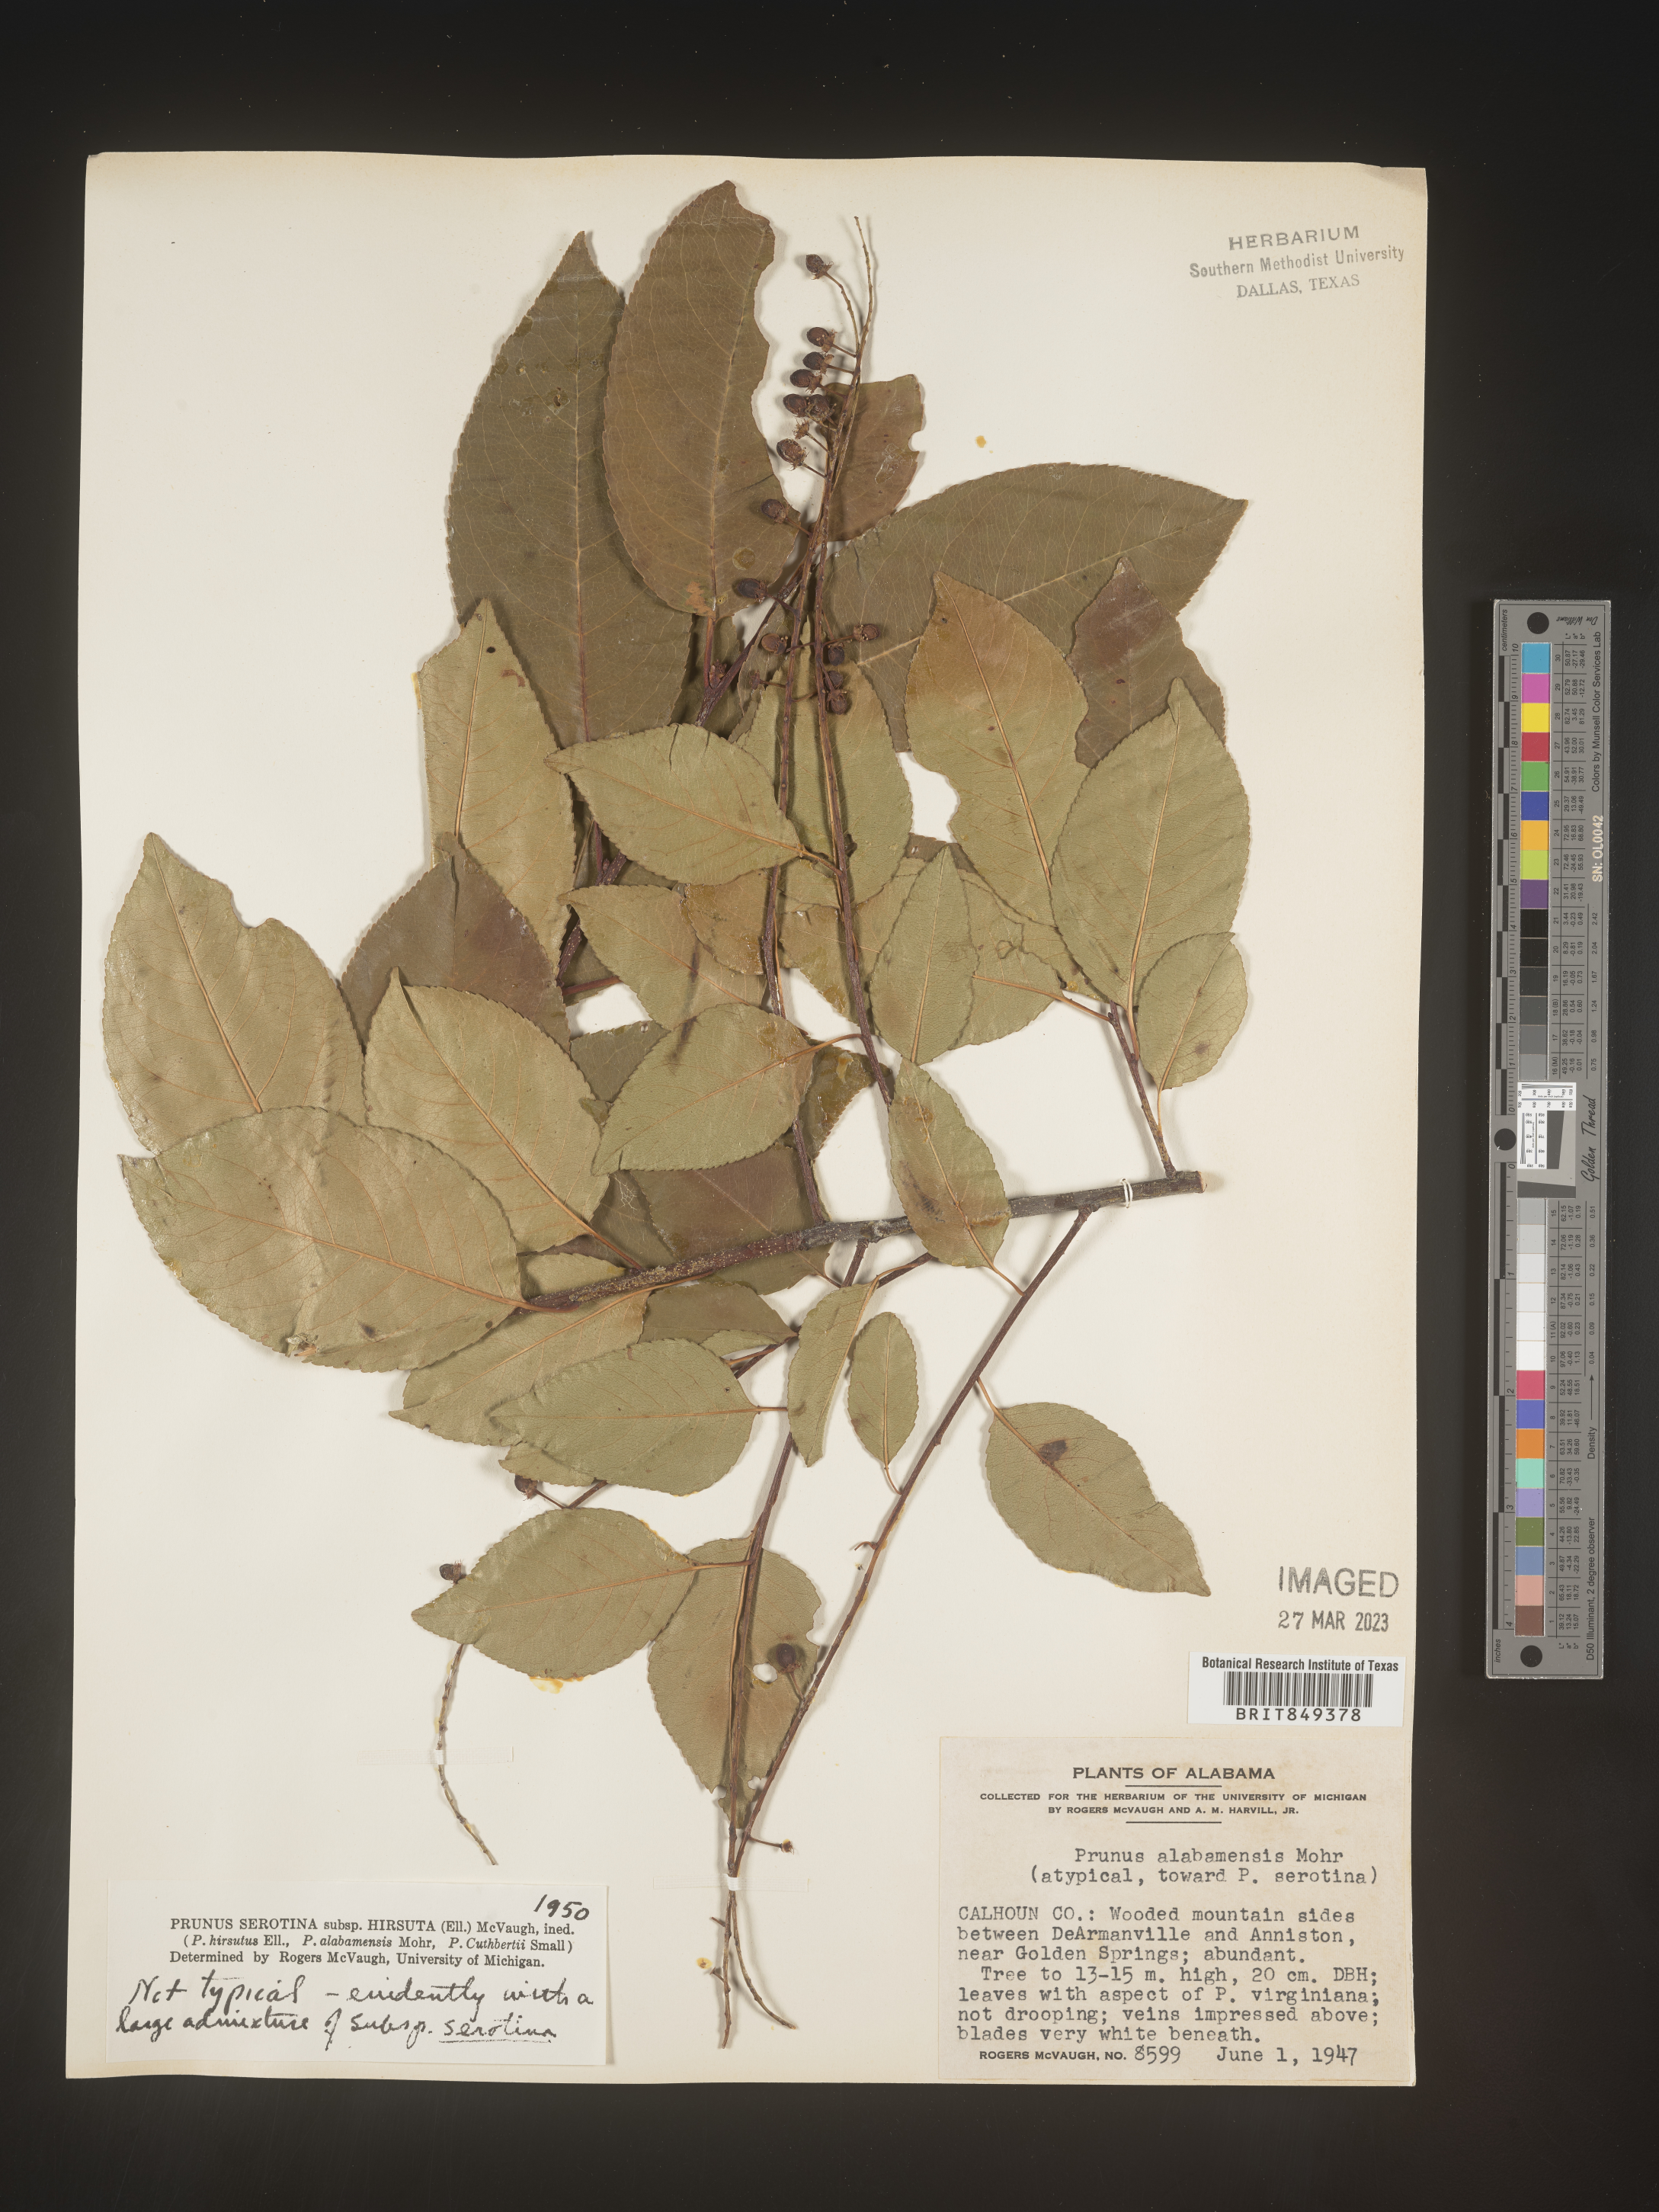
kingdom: Plantae
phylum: Tracheophyta
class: Magnoliopsida
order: Rosales
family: Rosaceae
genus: Prunus
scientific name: Prunus serotina
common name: Black cherry
